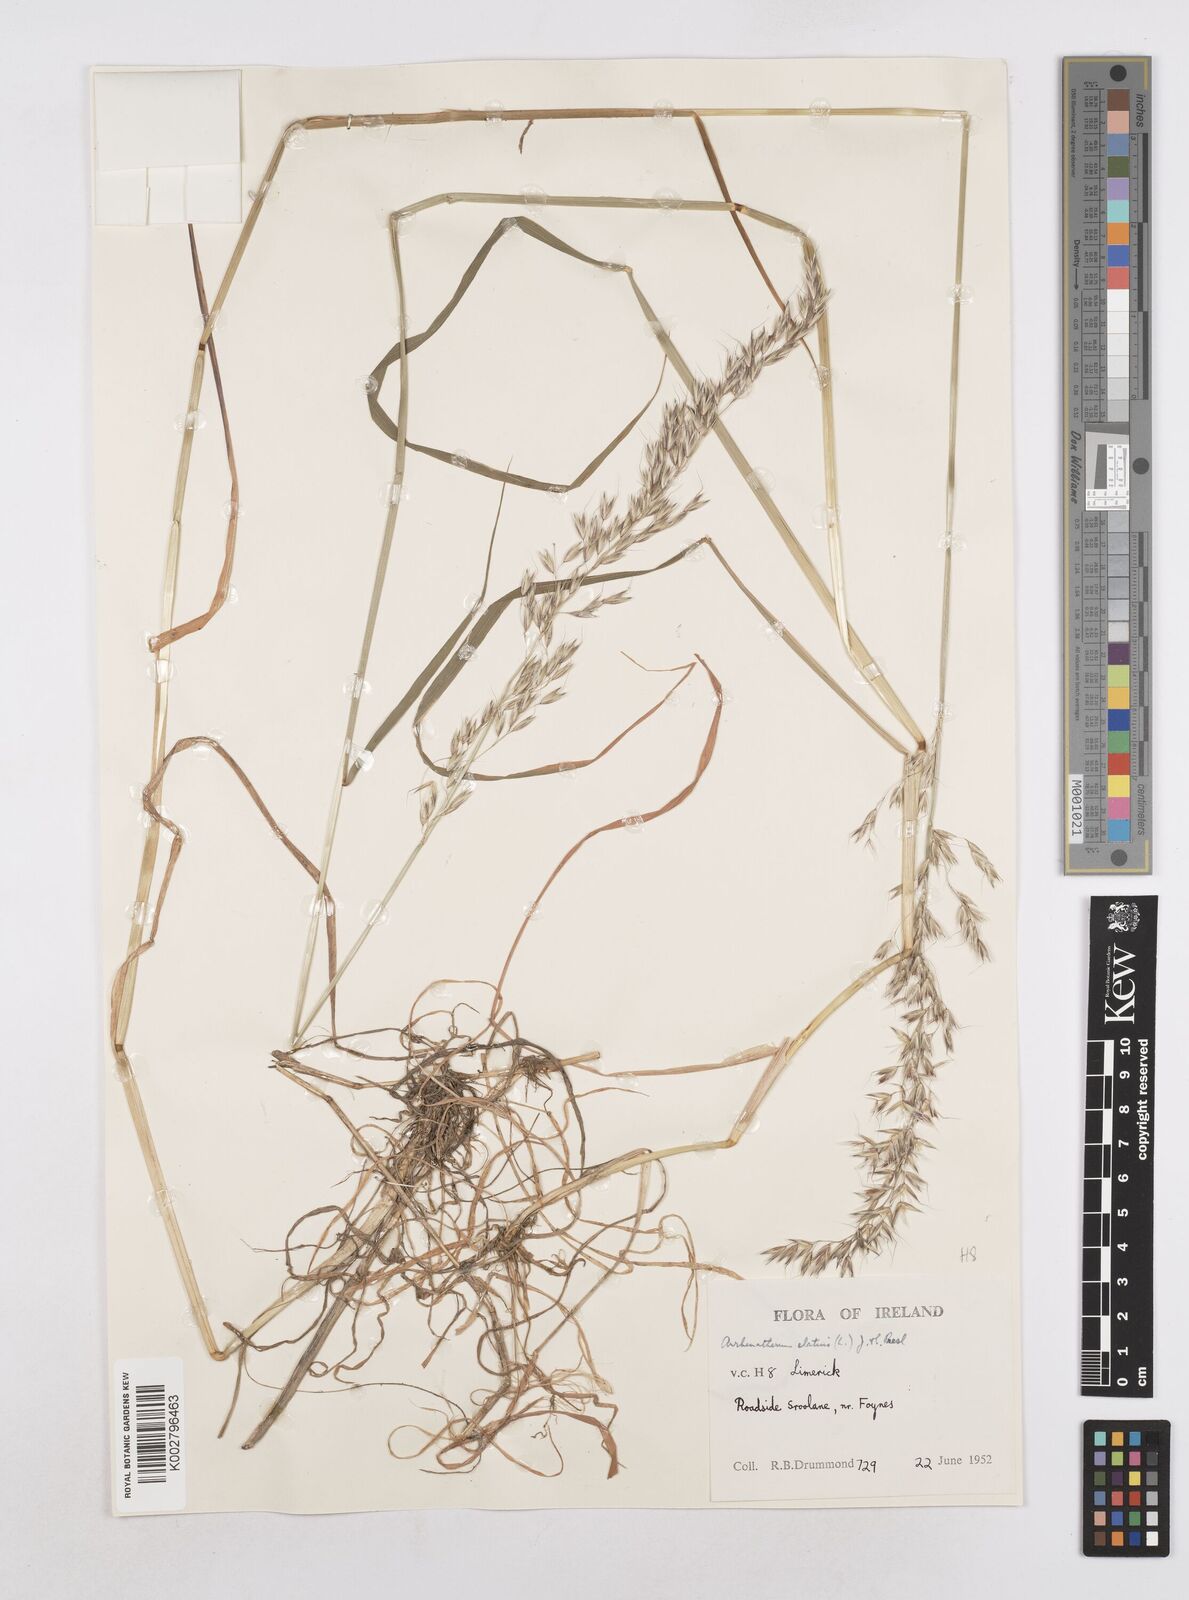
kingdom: Plantae
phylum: Tracheophyta
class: Liliopsida
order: Poales
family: Poaceae
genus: Arrhenatherum
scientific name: Arrhenatherum elatius
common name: Tall oatgrass
